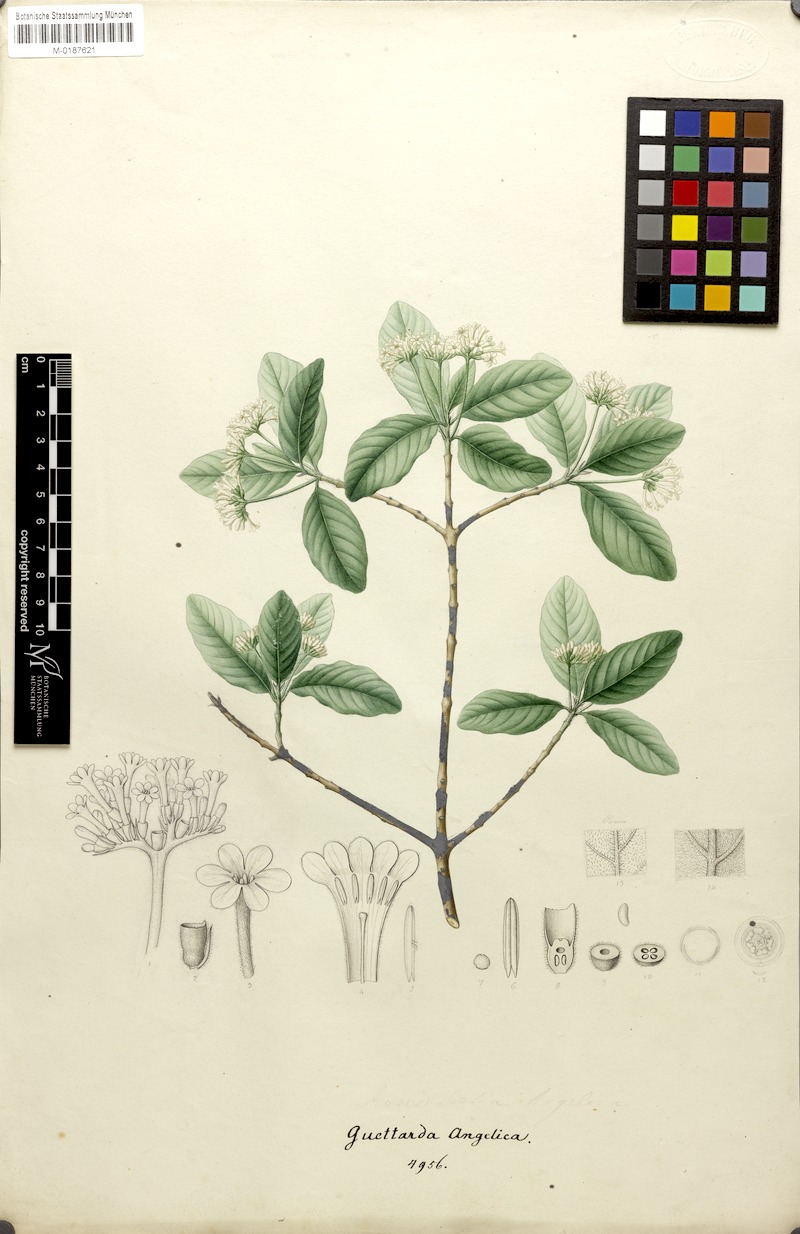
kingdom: Plantae
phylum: Tracheophyta
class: Magnoliopsida
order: Gentianales
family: Rubiaceae
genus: Guettarda
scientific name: Guettarda angelica
